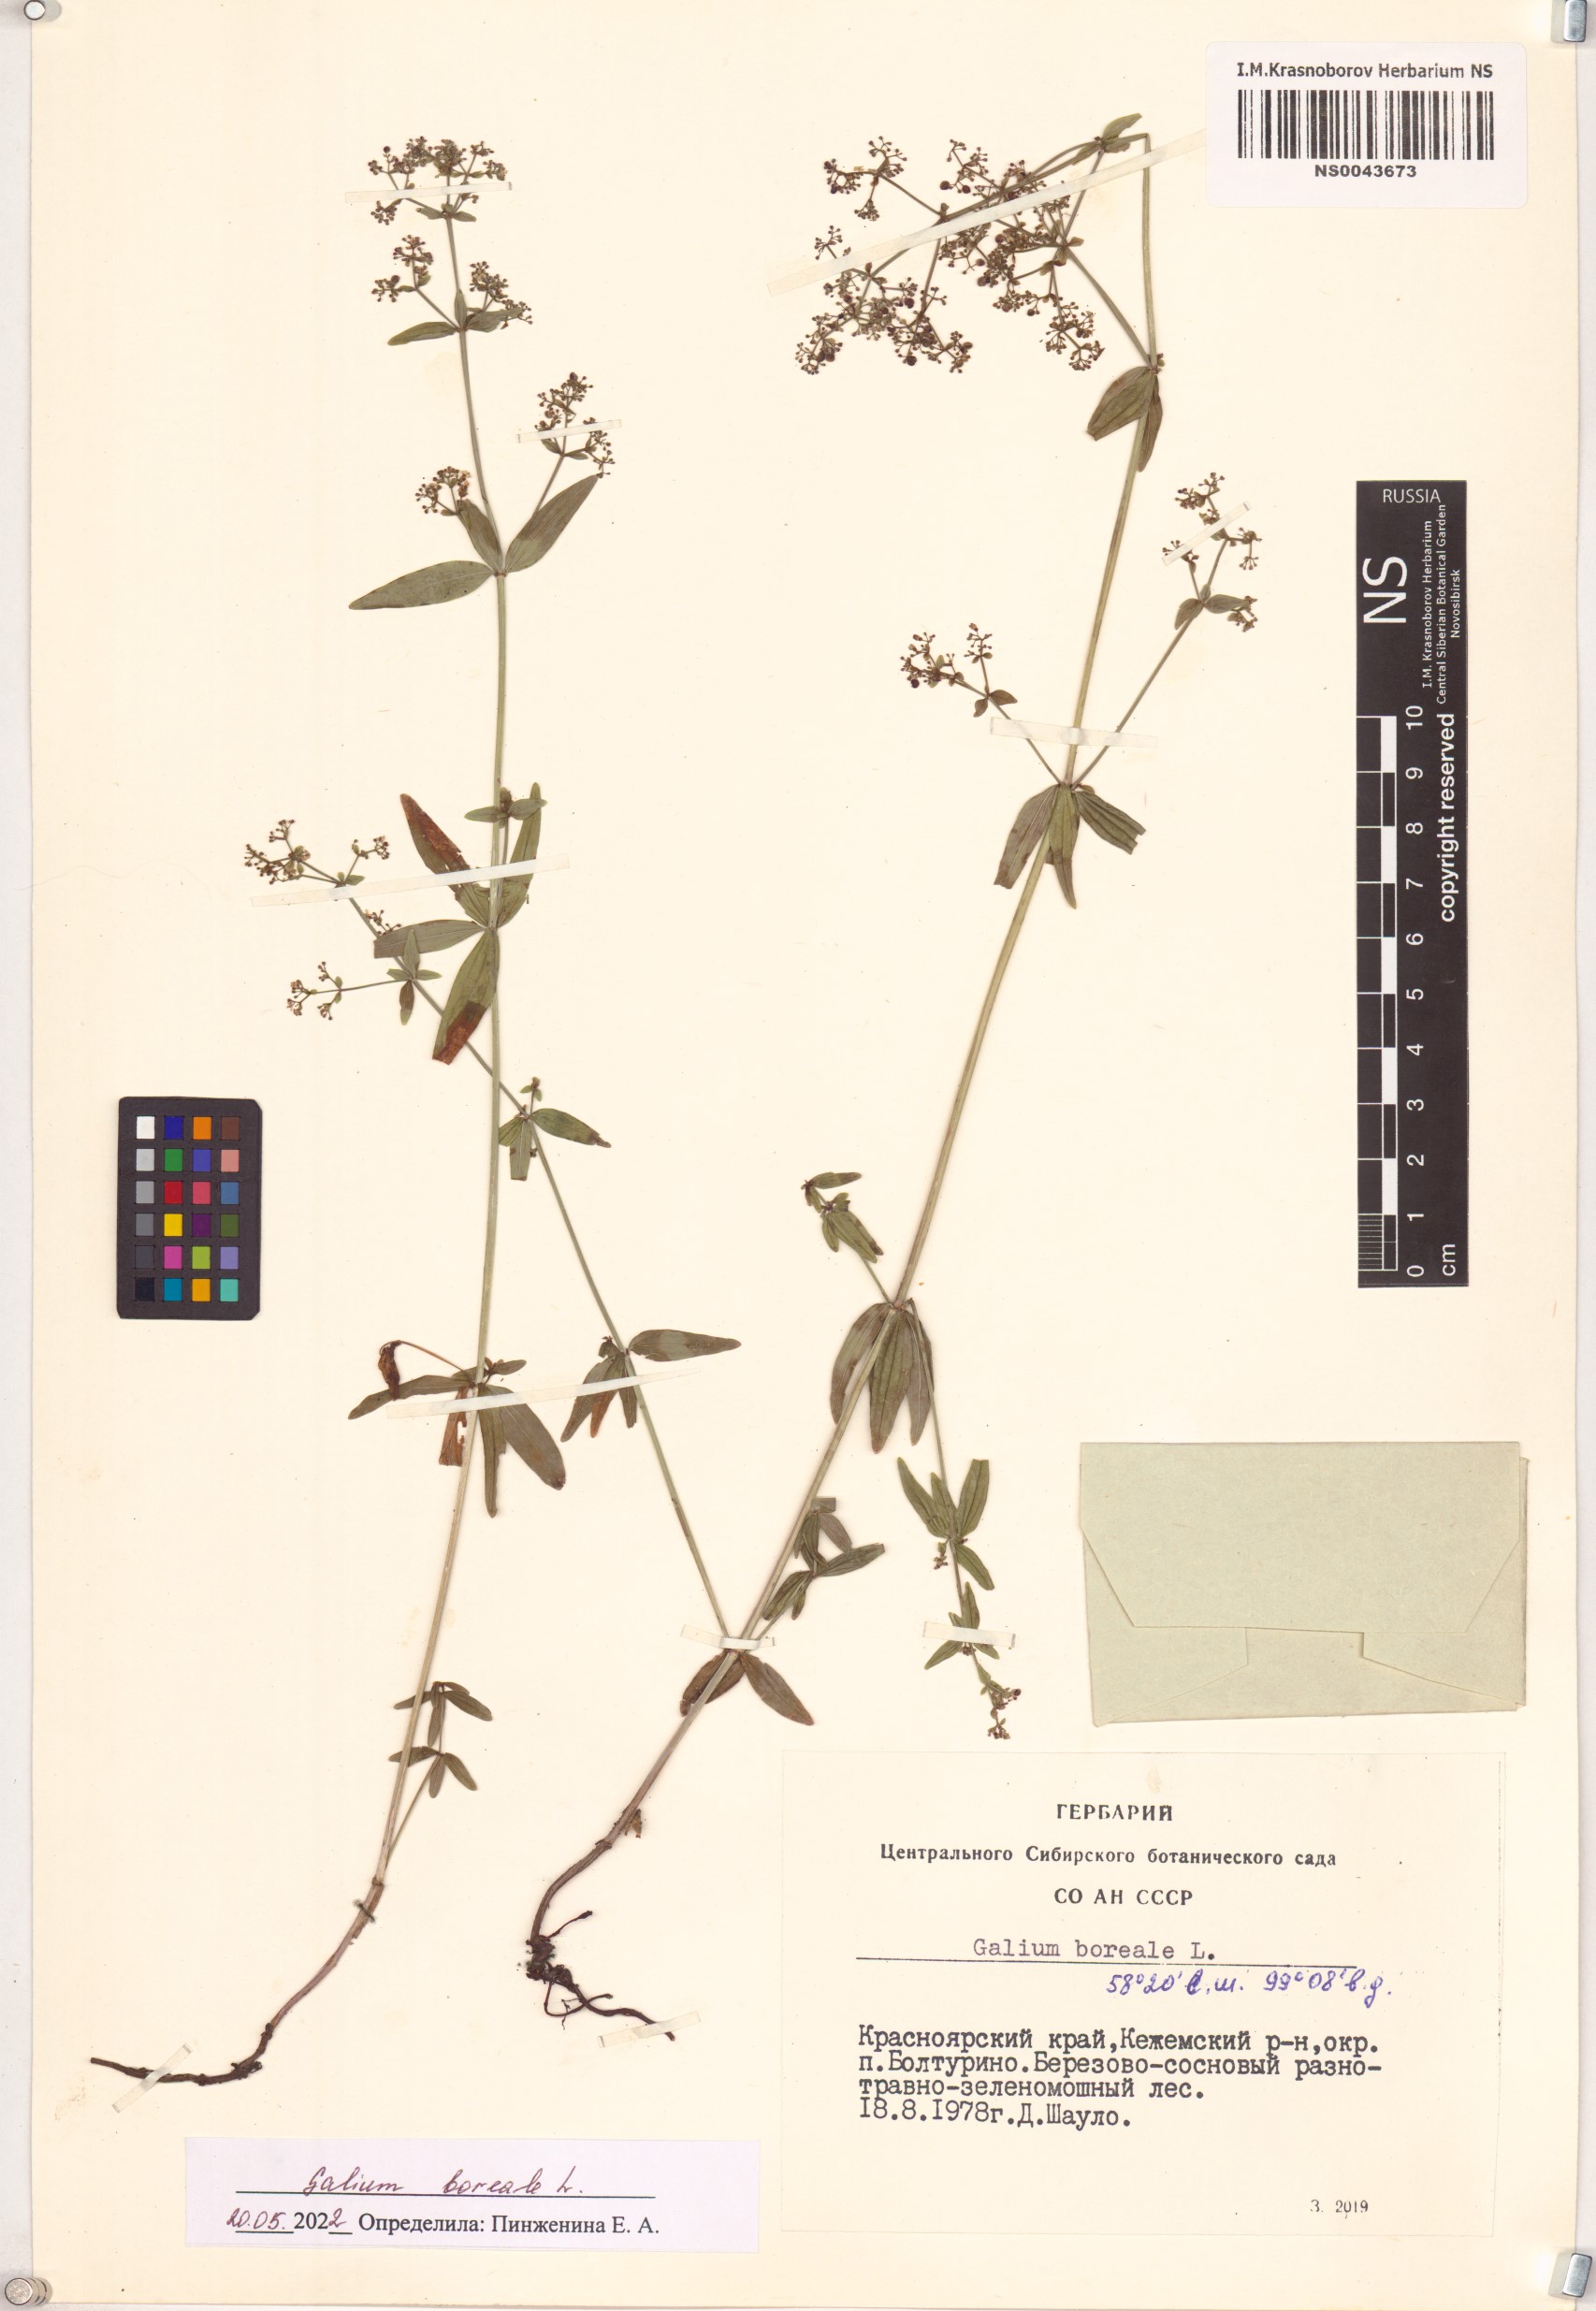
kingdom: Plantae
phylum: Tracheophyta
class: Magnoliopsida
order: Gentianales
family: Rubiaceae
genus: Galium
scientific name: Galium boreale
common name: Northern bedstraw
